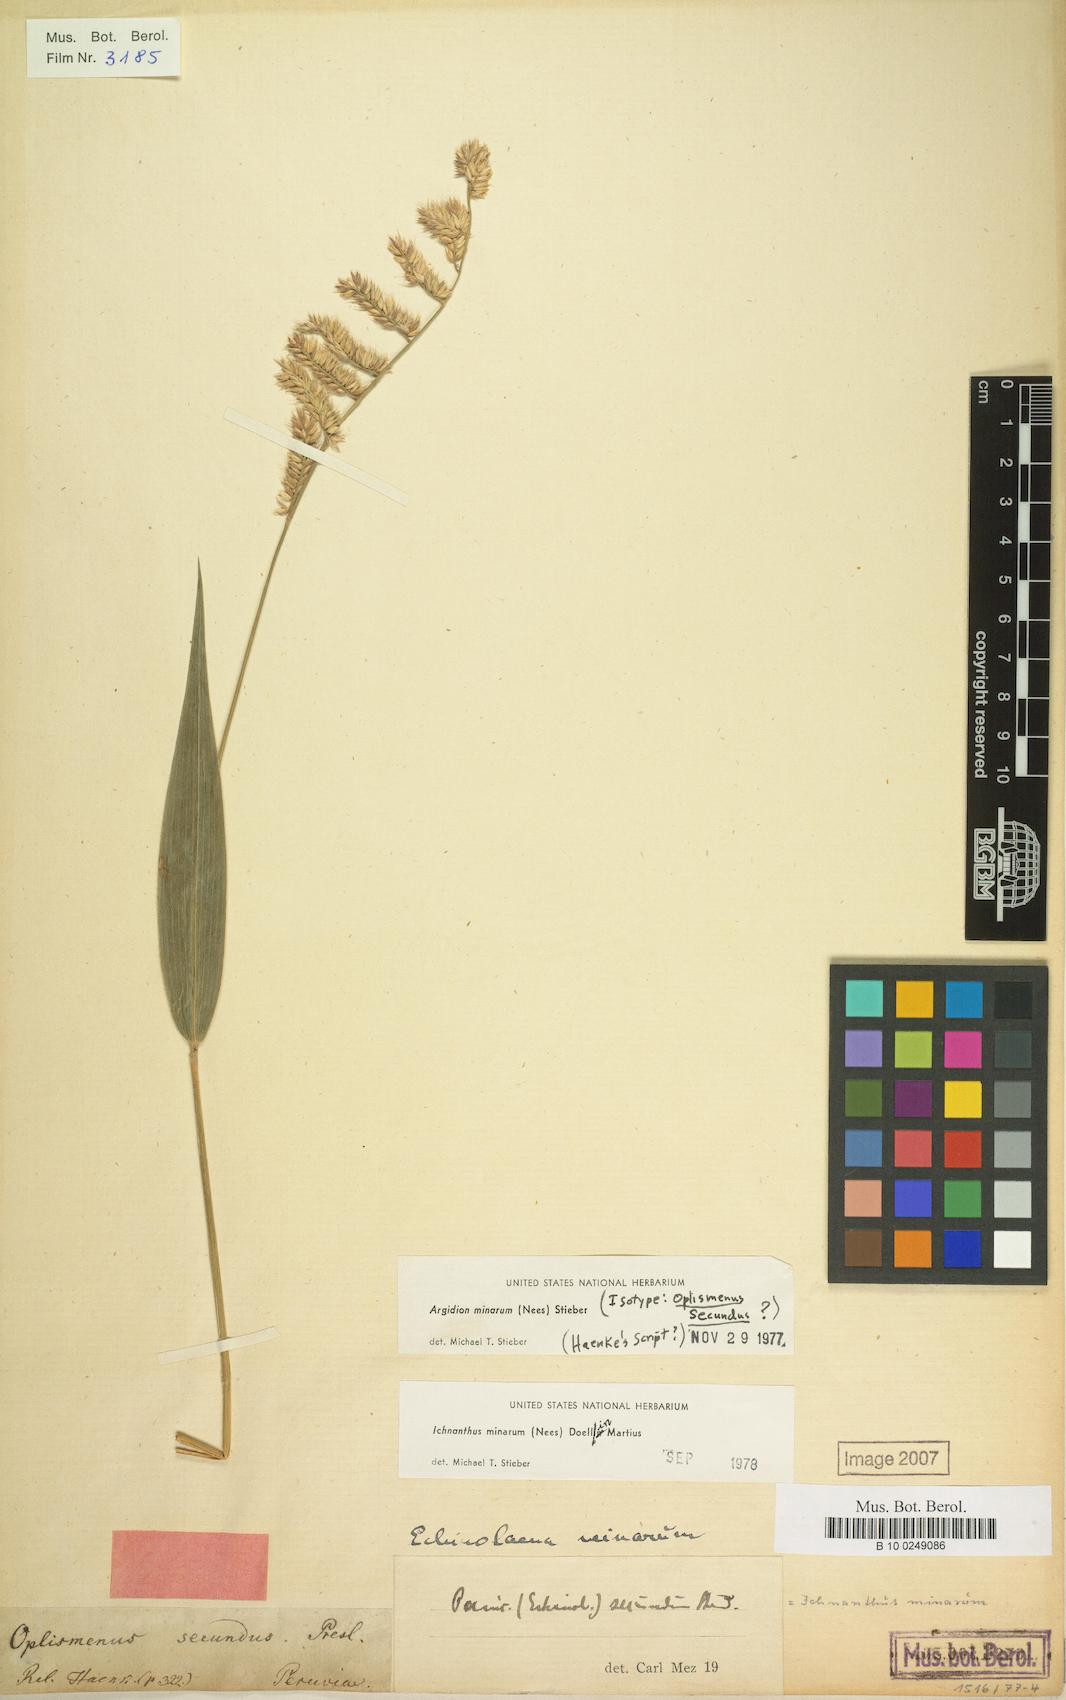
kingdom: Plantae
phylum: Tracheophyta
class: Liliopsida
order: Poales
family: Poaceae
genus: Oedochloa
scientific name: Oedochloa minarum
